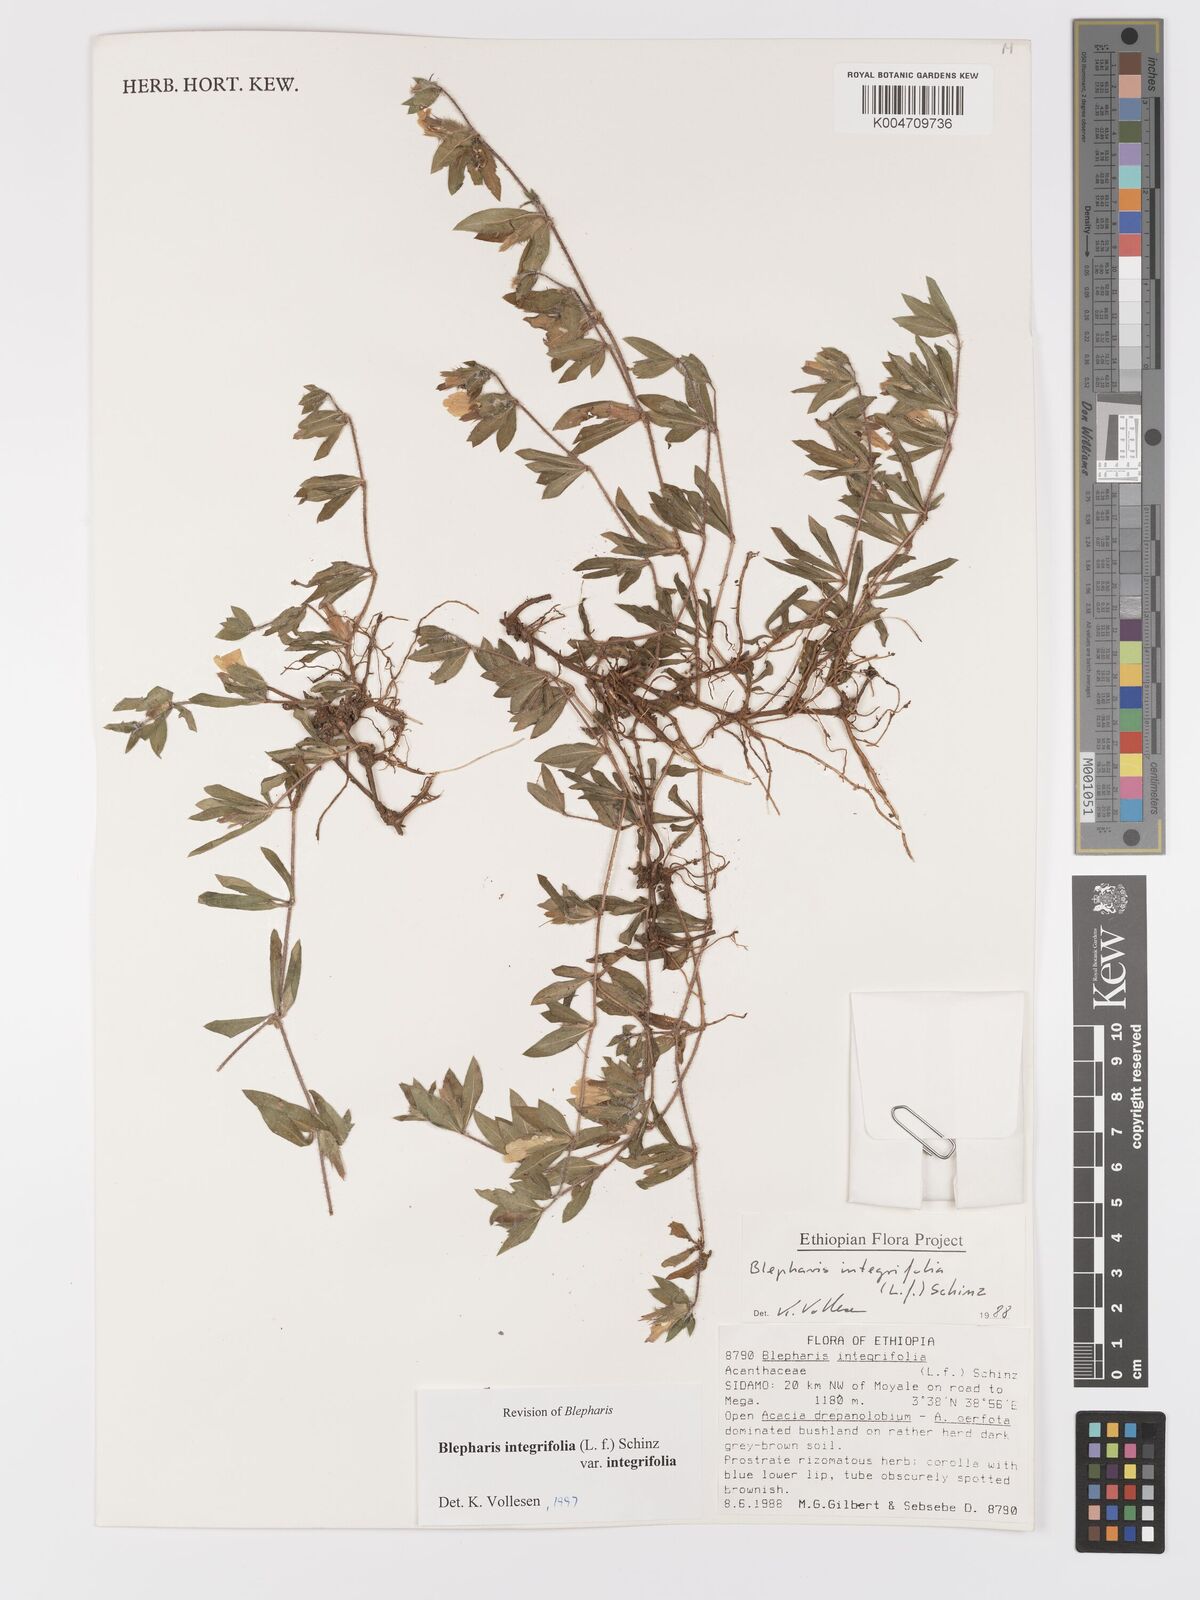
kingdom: Plantae
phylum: Tracheophyta
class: Magnoliopsida
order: Lamiales
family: Acanthaceae
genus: Blepharis
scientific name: Blepharis integrifolia
